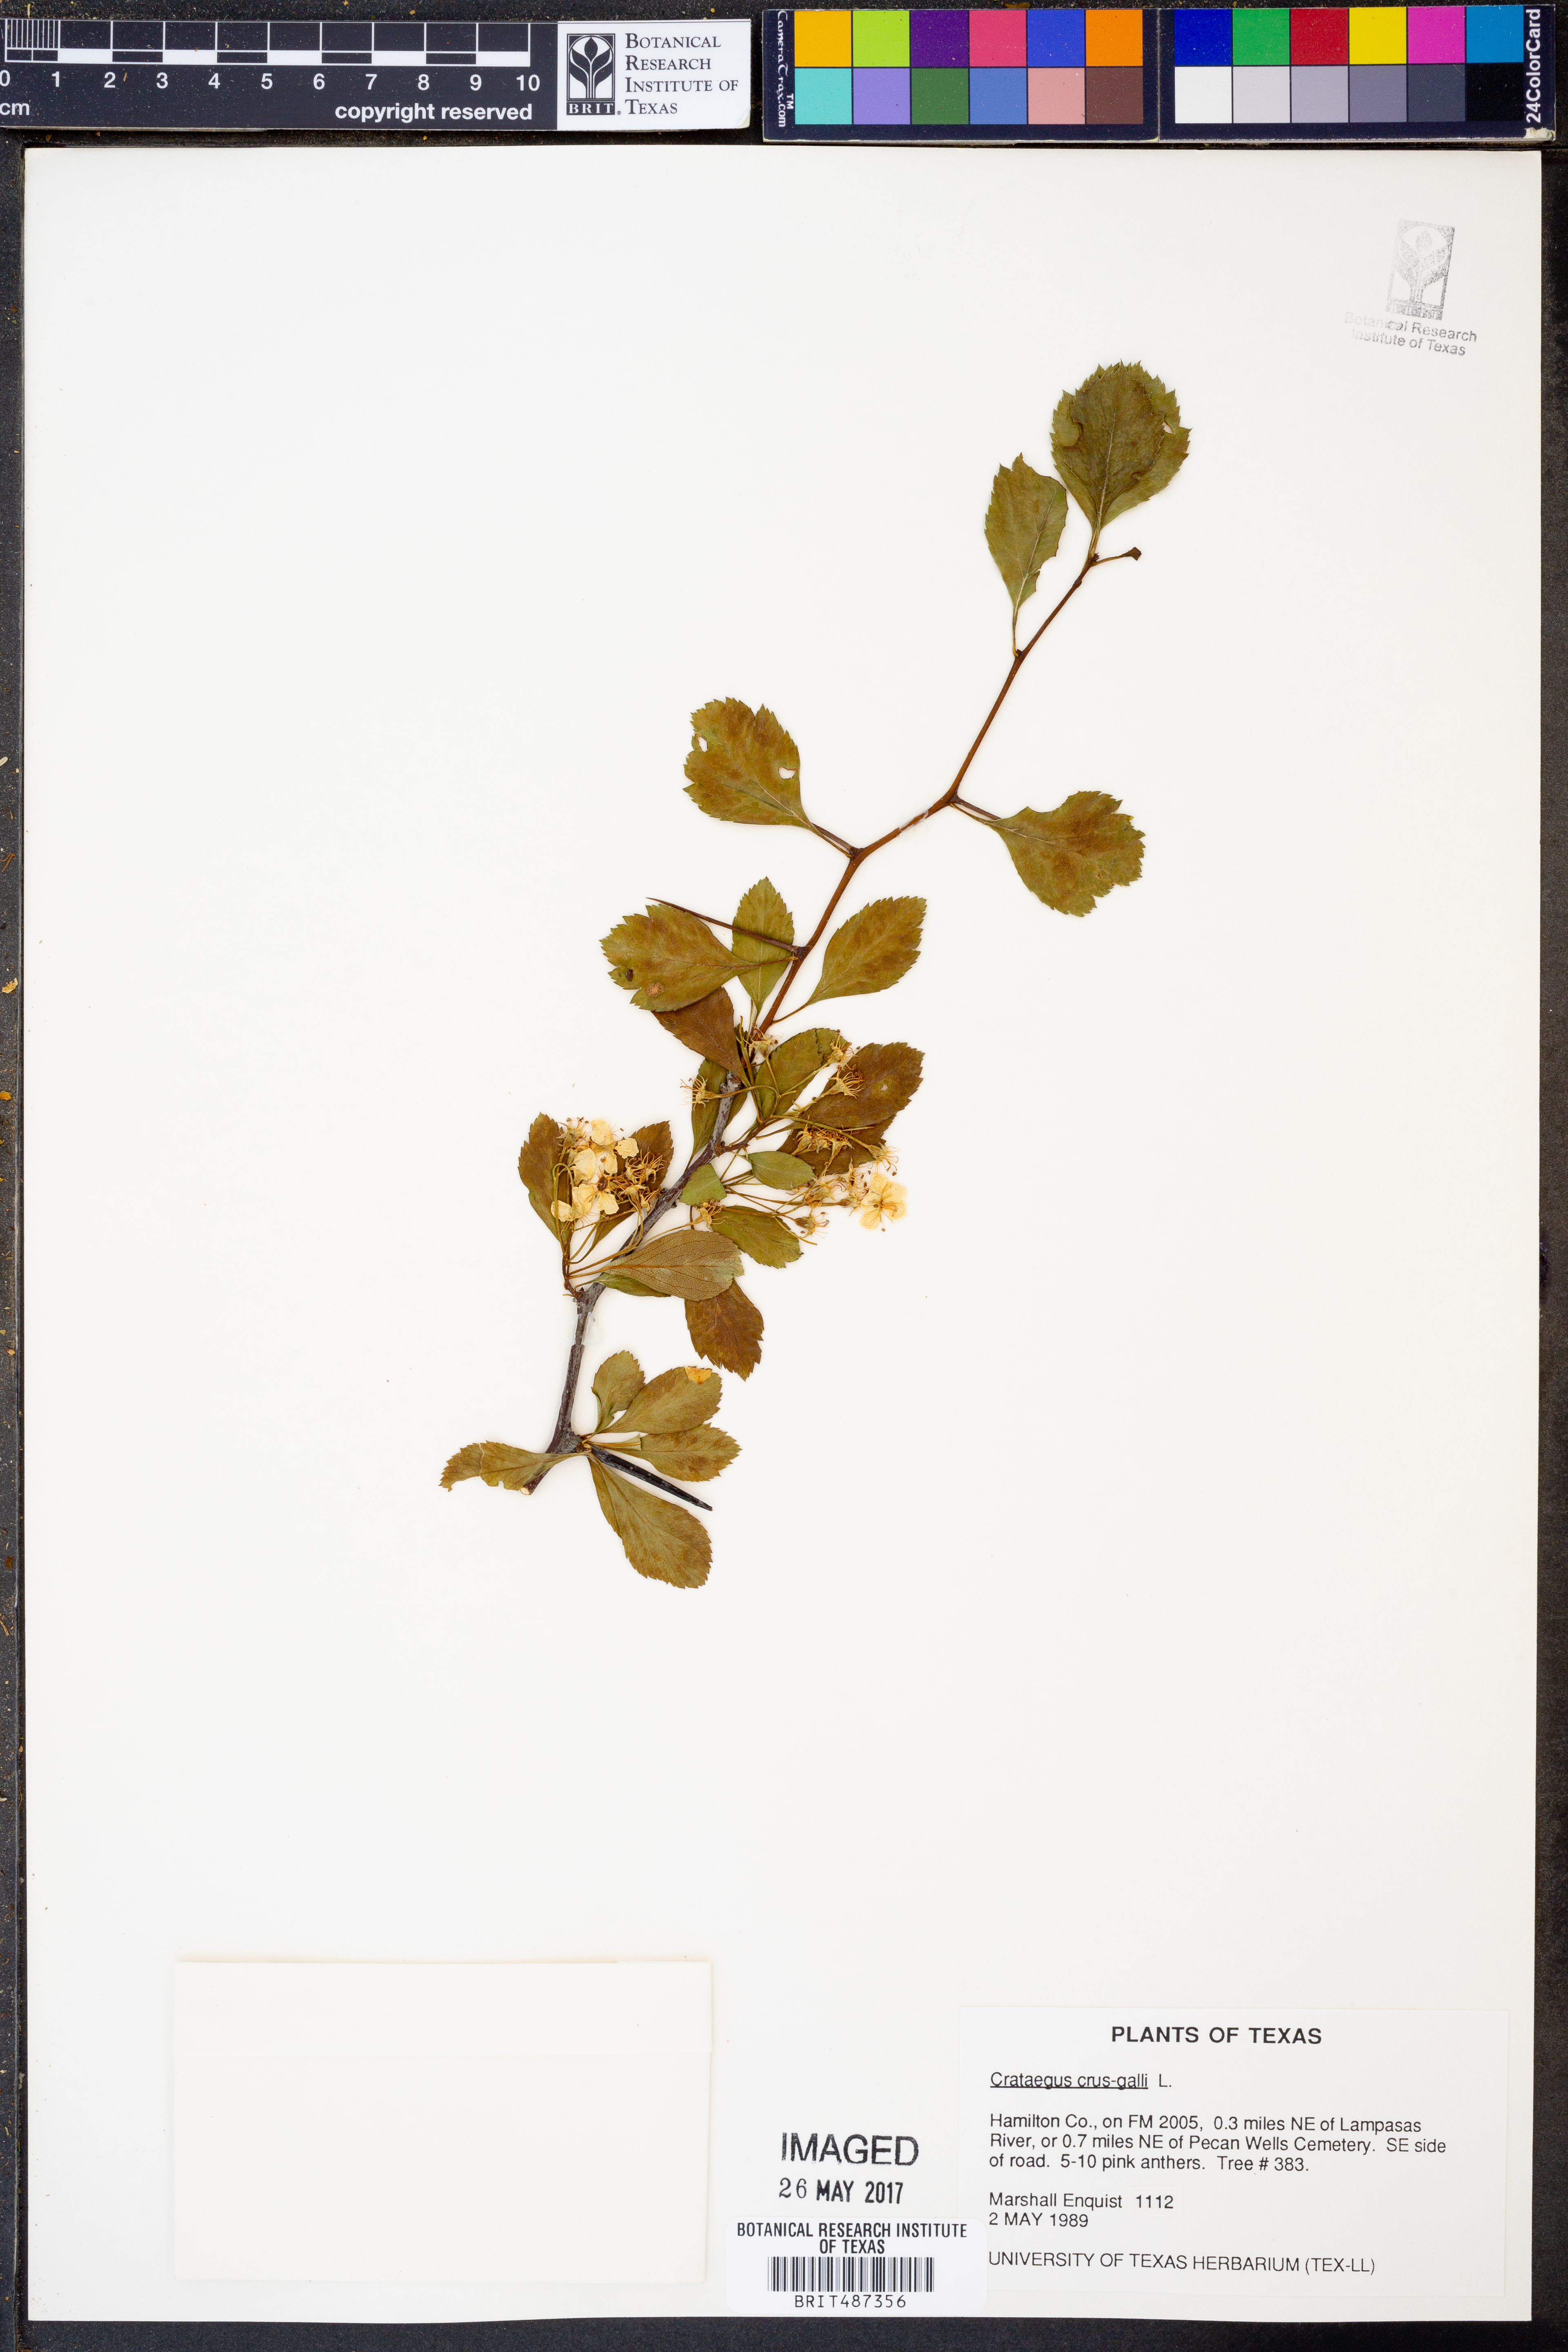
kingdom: Plantae
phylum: Tracheophyta
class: Magnoliopsida
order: Rosales
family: Rosaceae
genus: Crataegus
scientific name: Crataegus crus-galli
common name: Cockspurthorn
